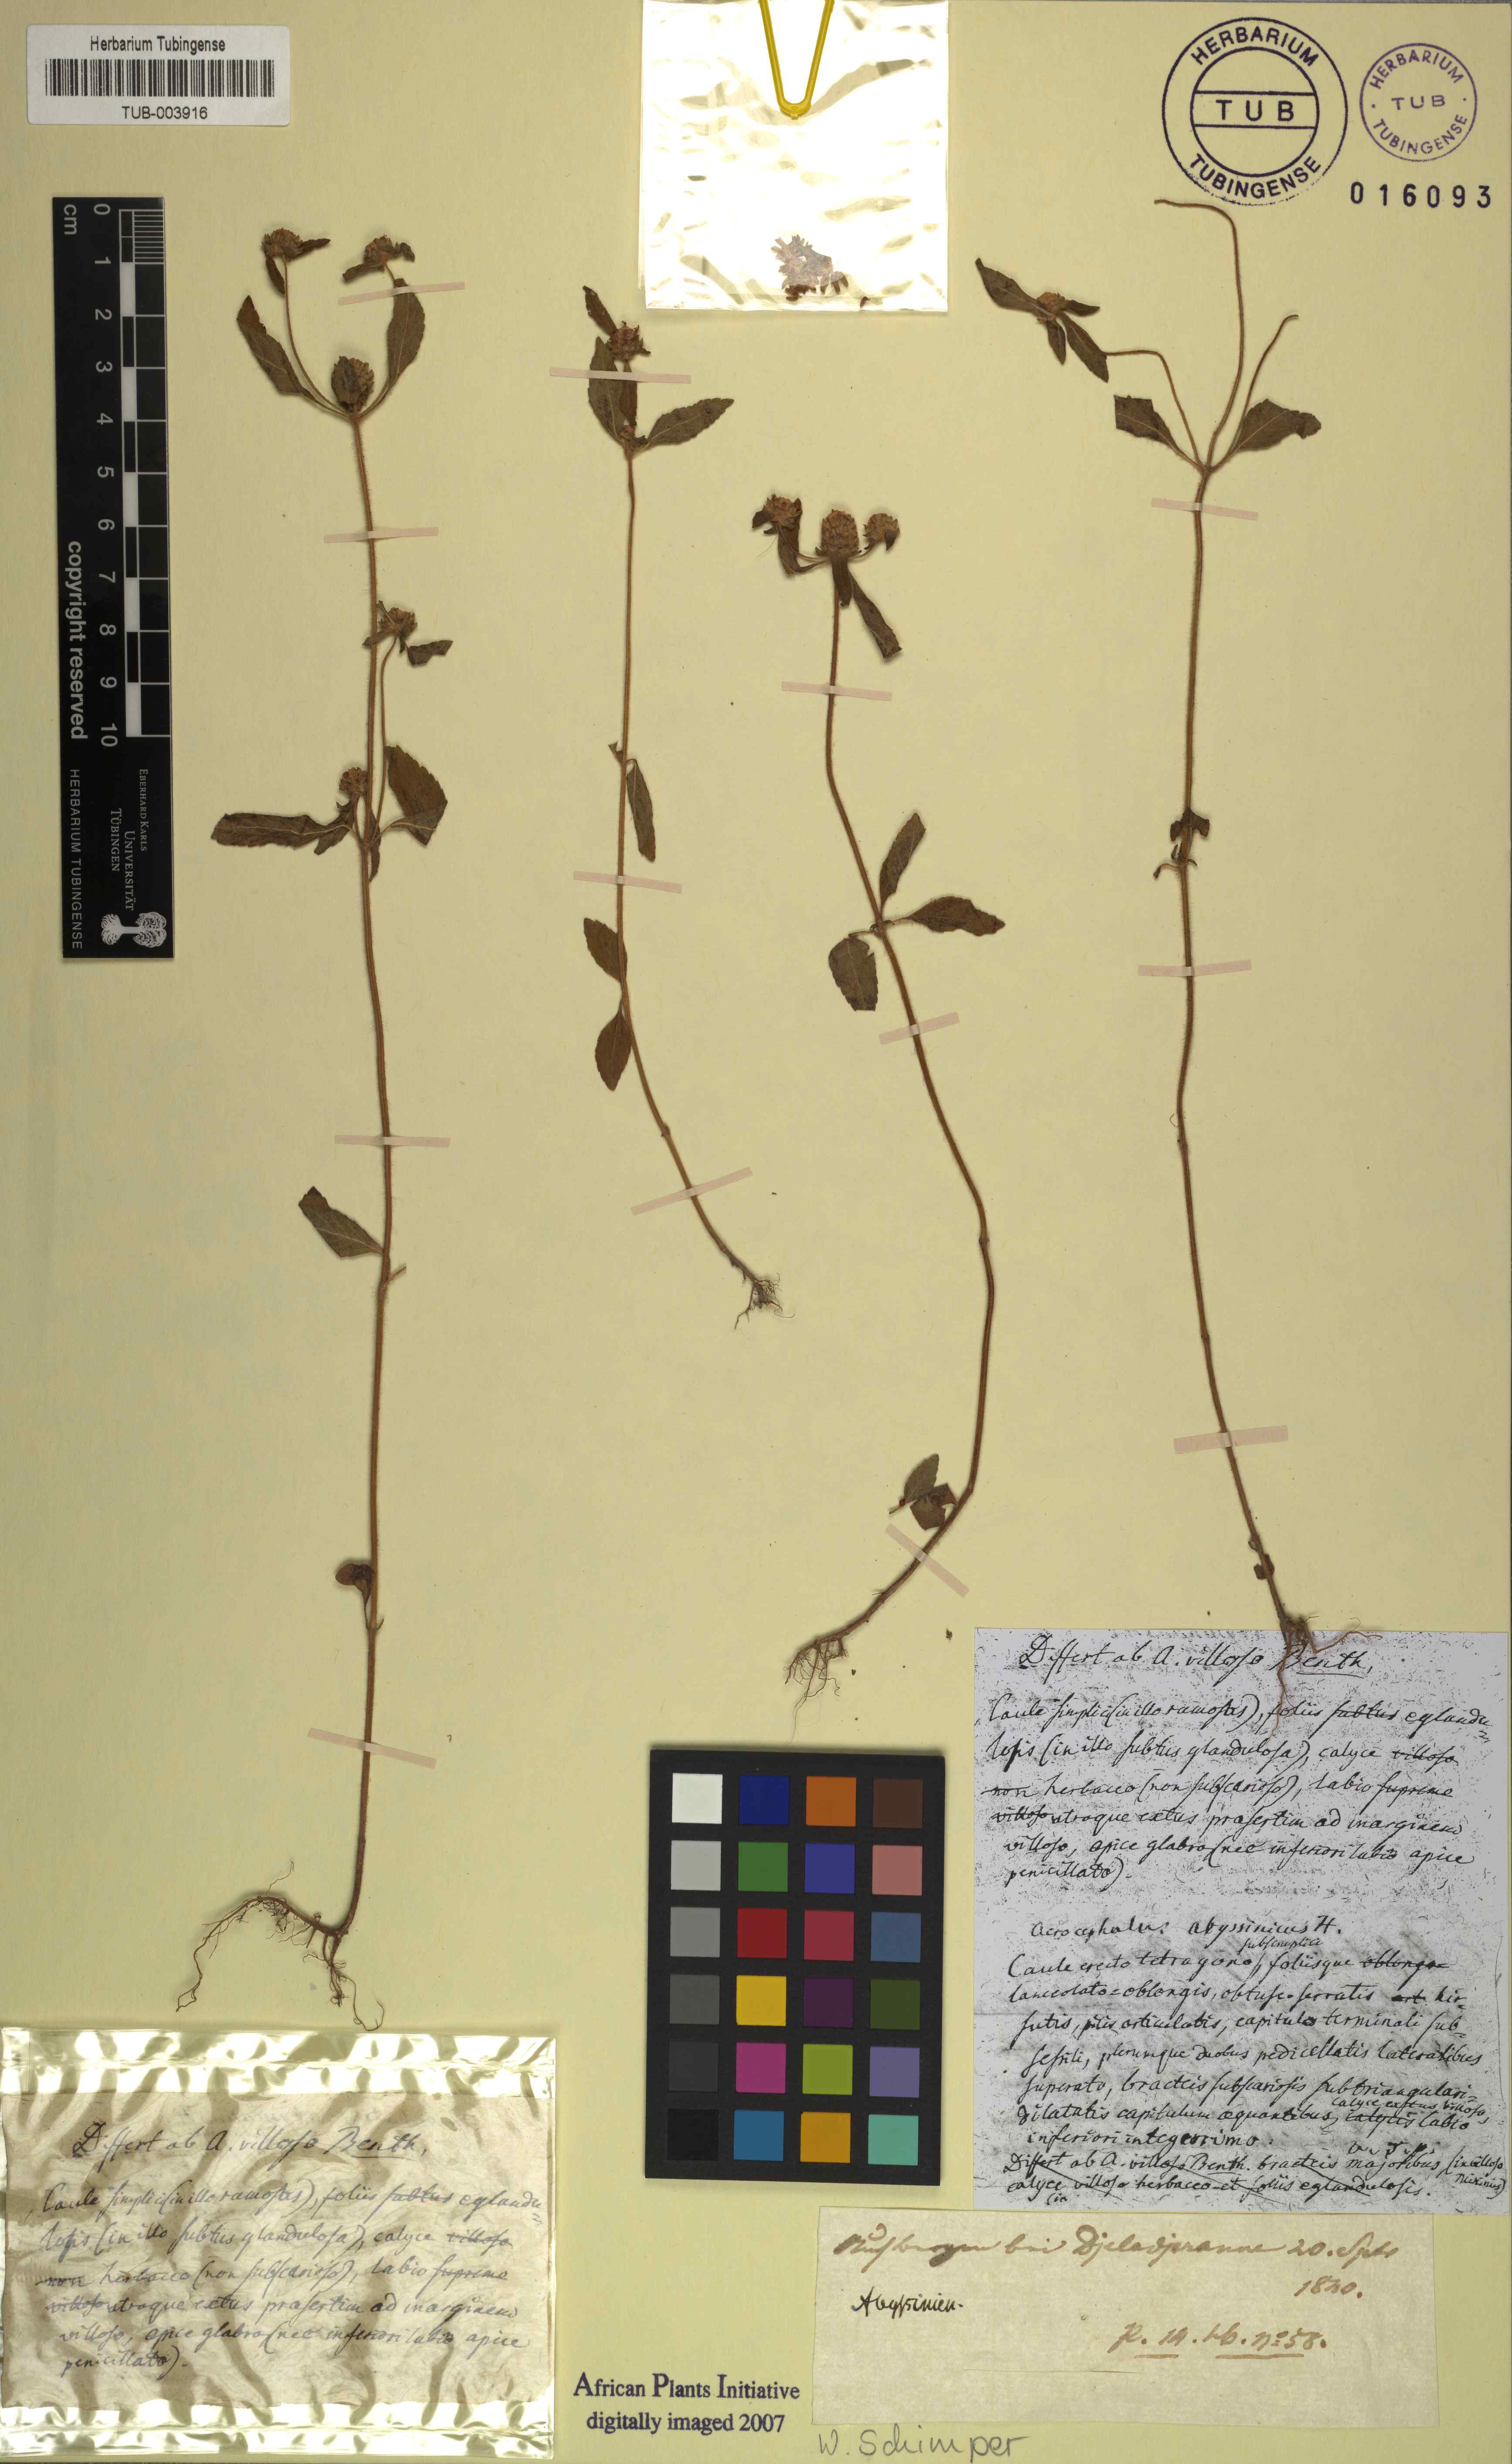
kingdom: Plantae
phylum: Tracheophyta
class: Magnoliopsida
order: Lamiales
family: Lamiaceae
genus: Haumaniastrum
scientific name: Haumaniastrum villosum
